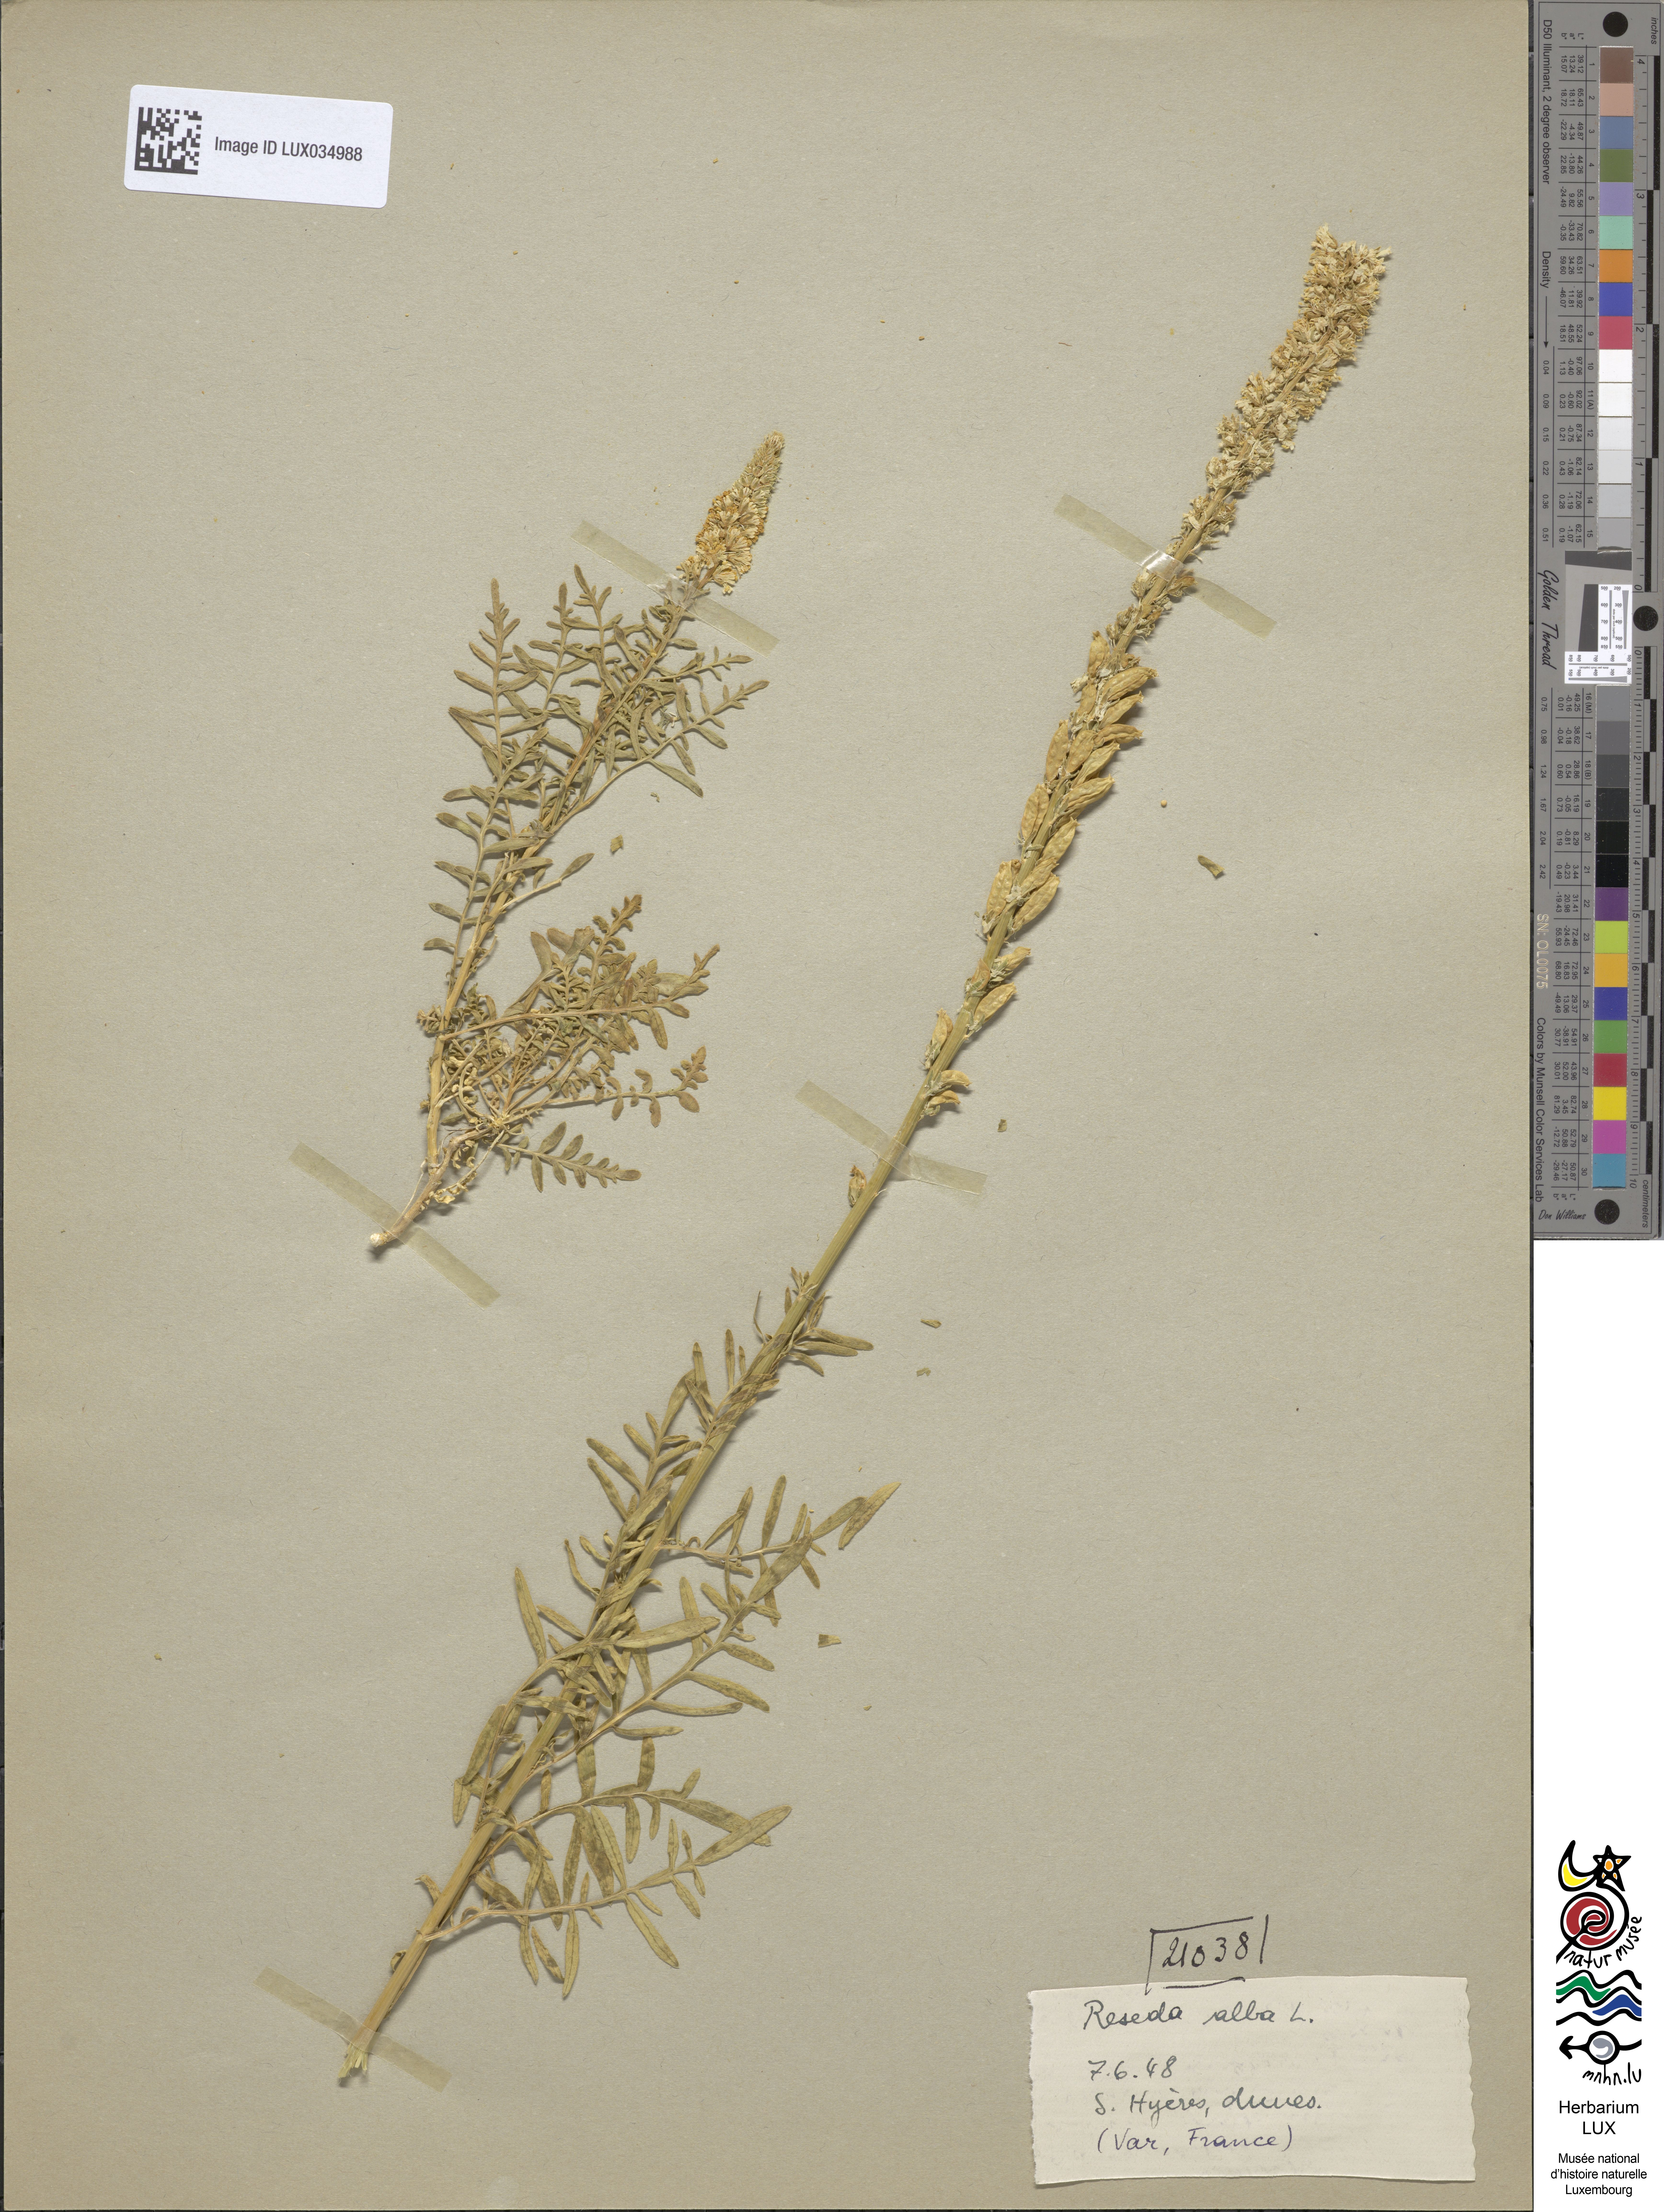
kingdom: Plantae
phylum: Tracheophyta
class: Magnoliopsida
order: Brassicales
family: Resedaceae
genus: Reseda
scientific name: Reseda alba
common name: White mignonette
